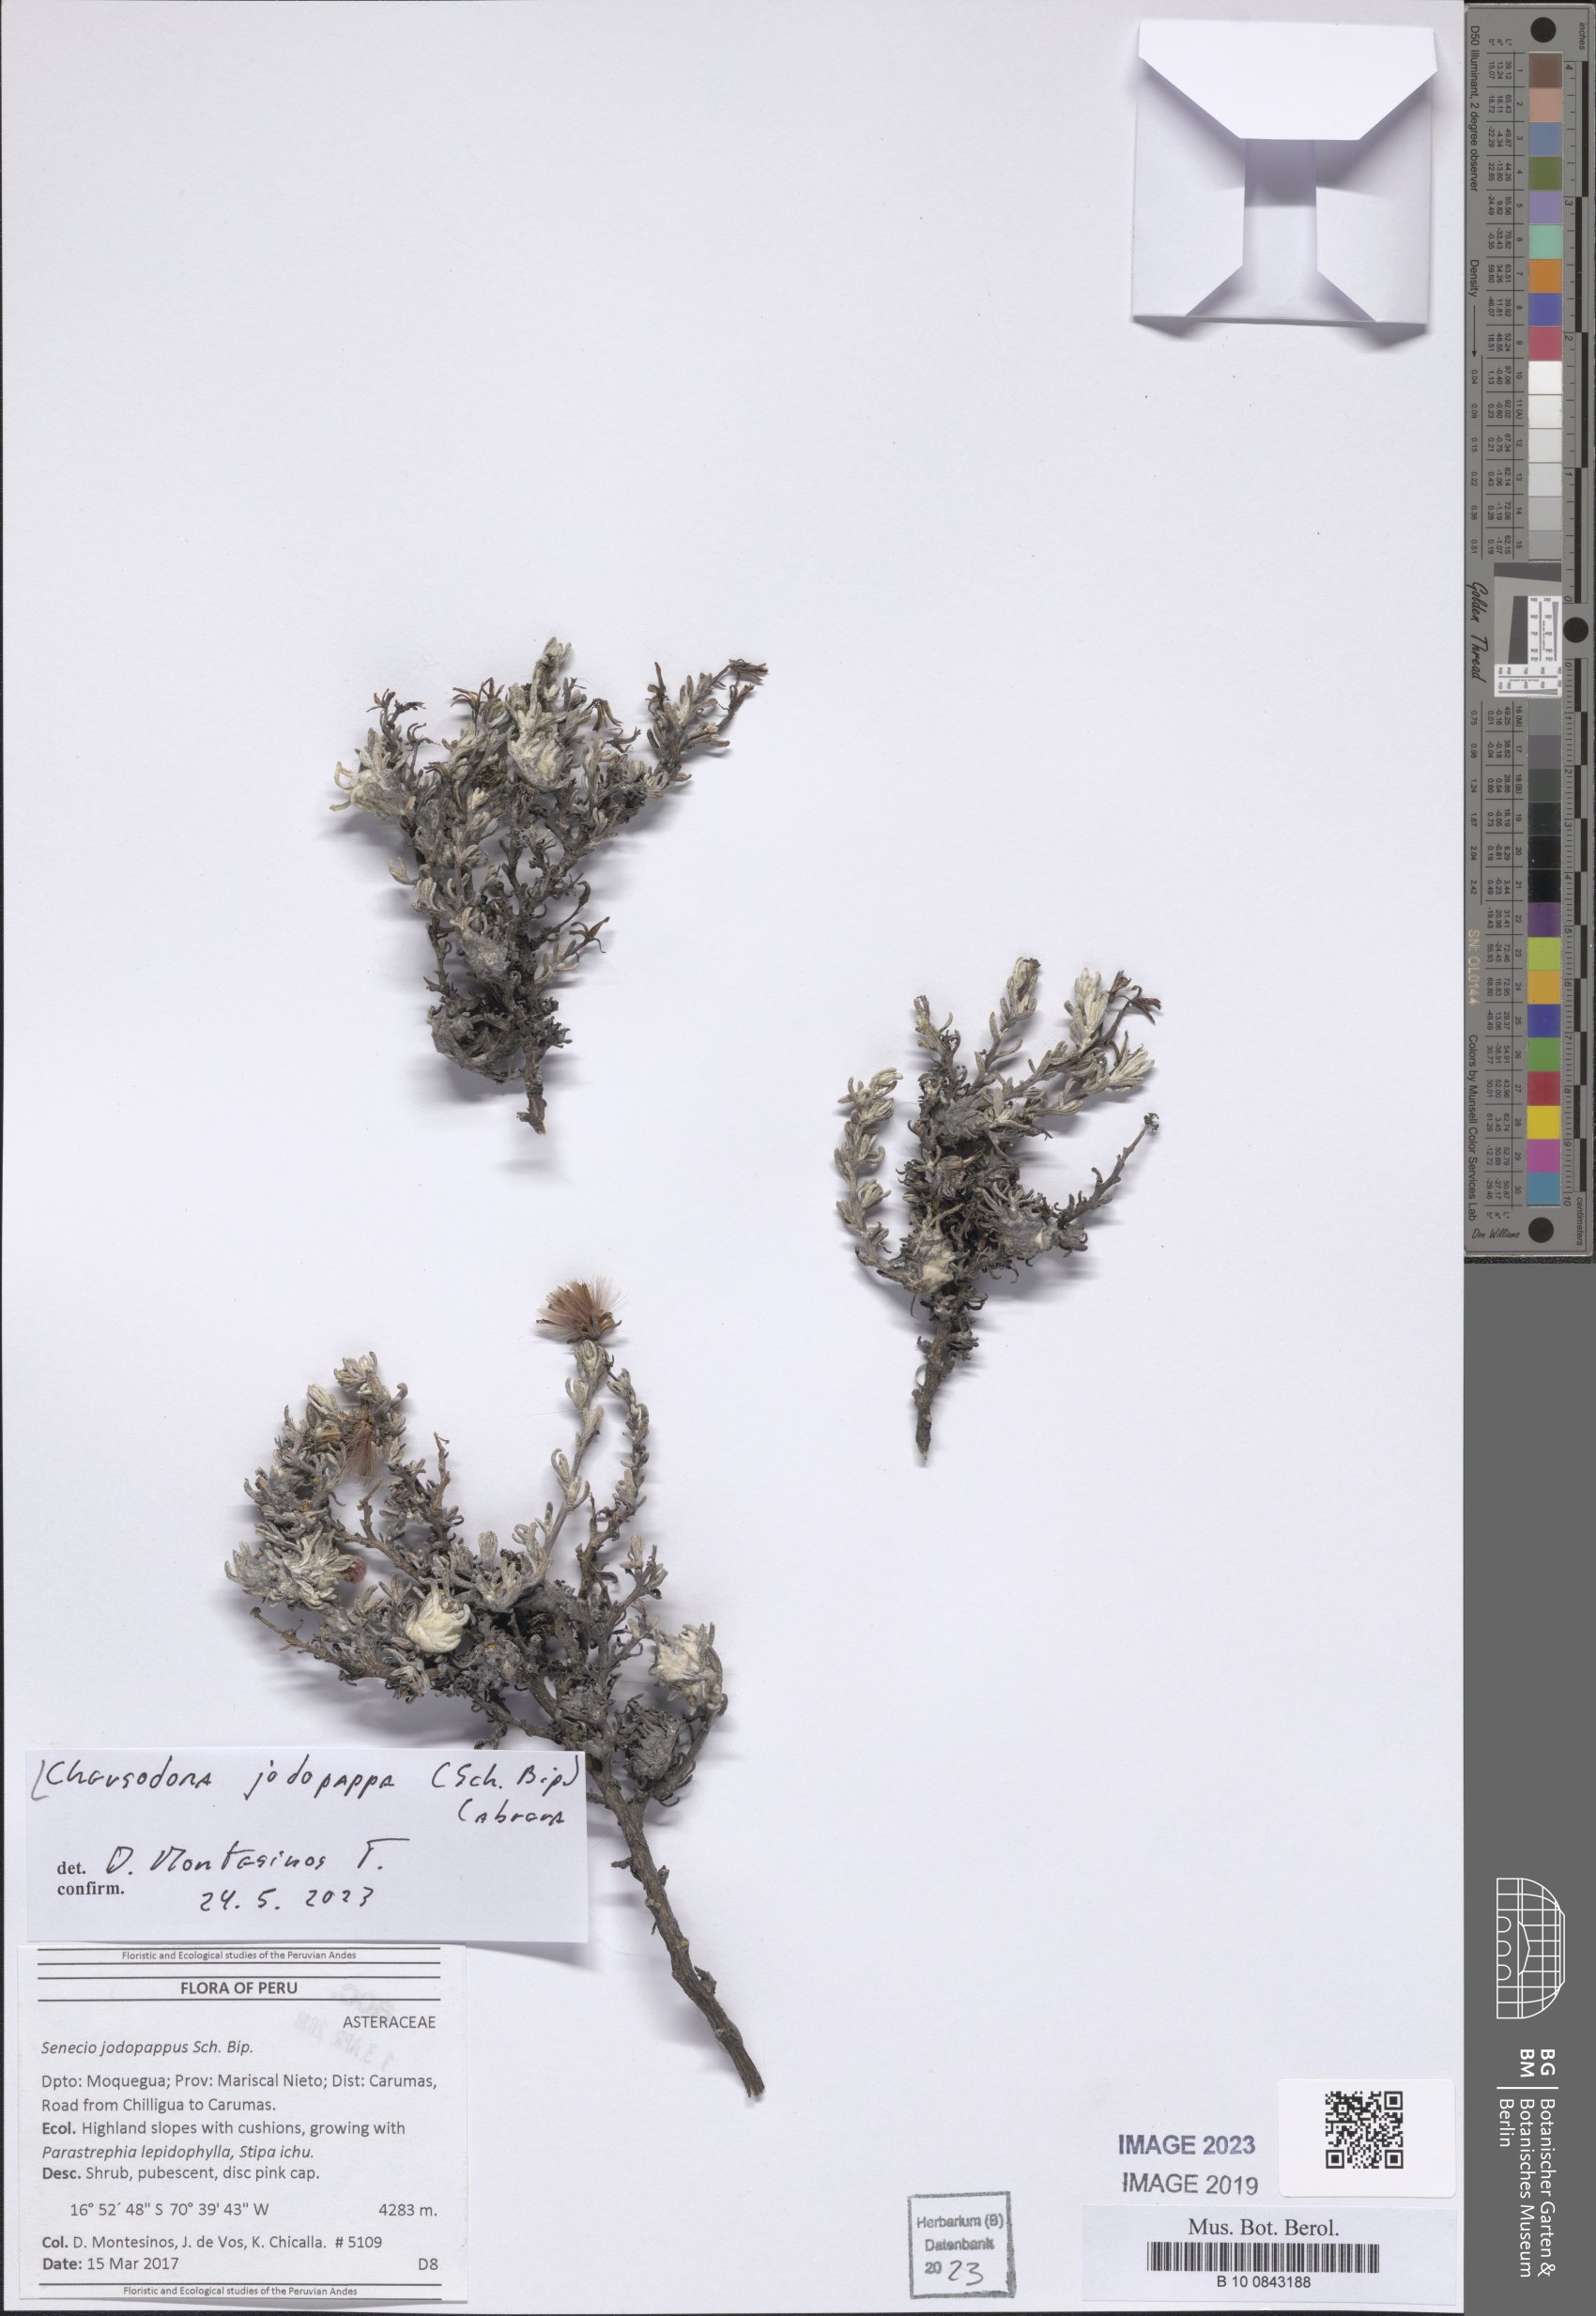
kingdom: Plantae
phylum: Tracheophyta
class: Magnoliopsida
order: Asterales
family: Asteraceae
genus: Chersodoma
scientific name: Chersodoma jodopappa
